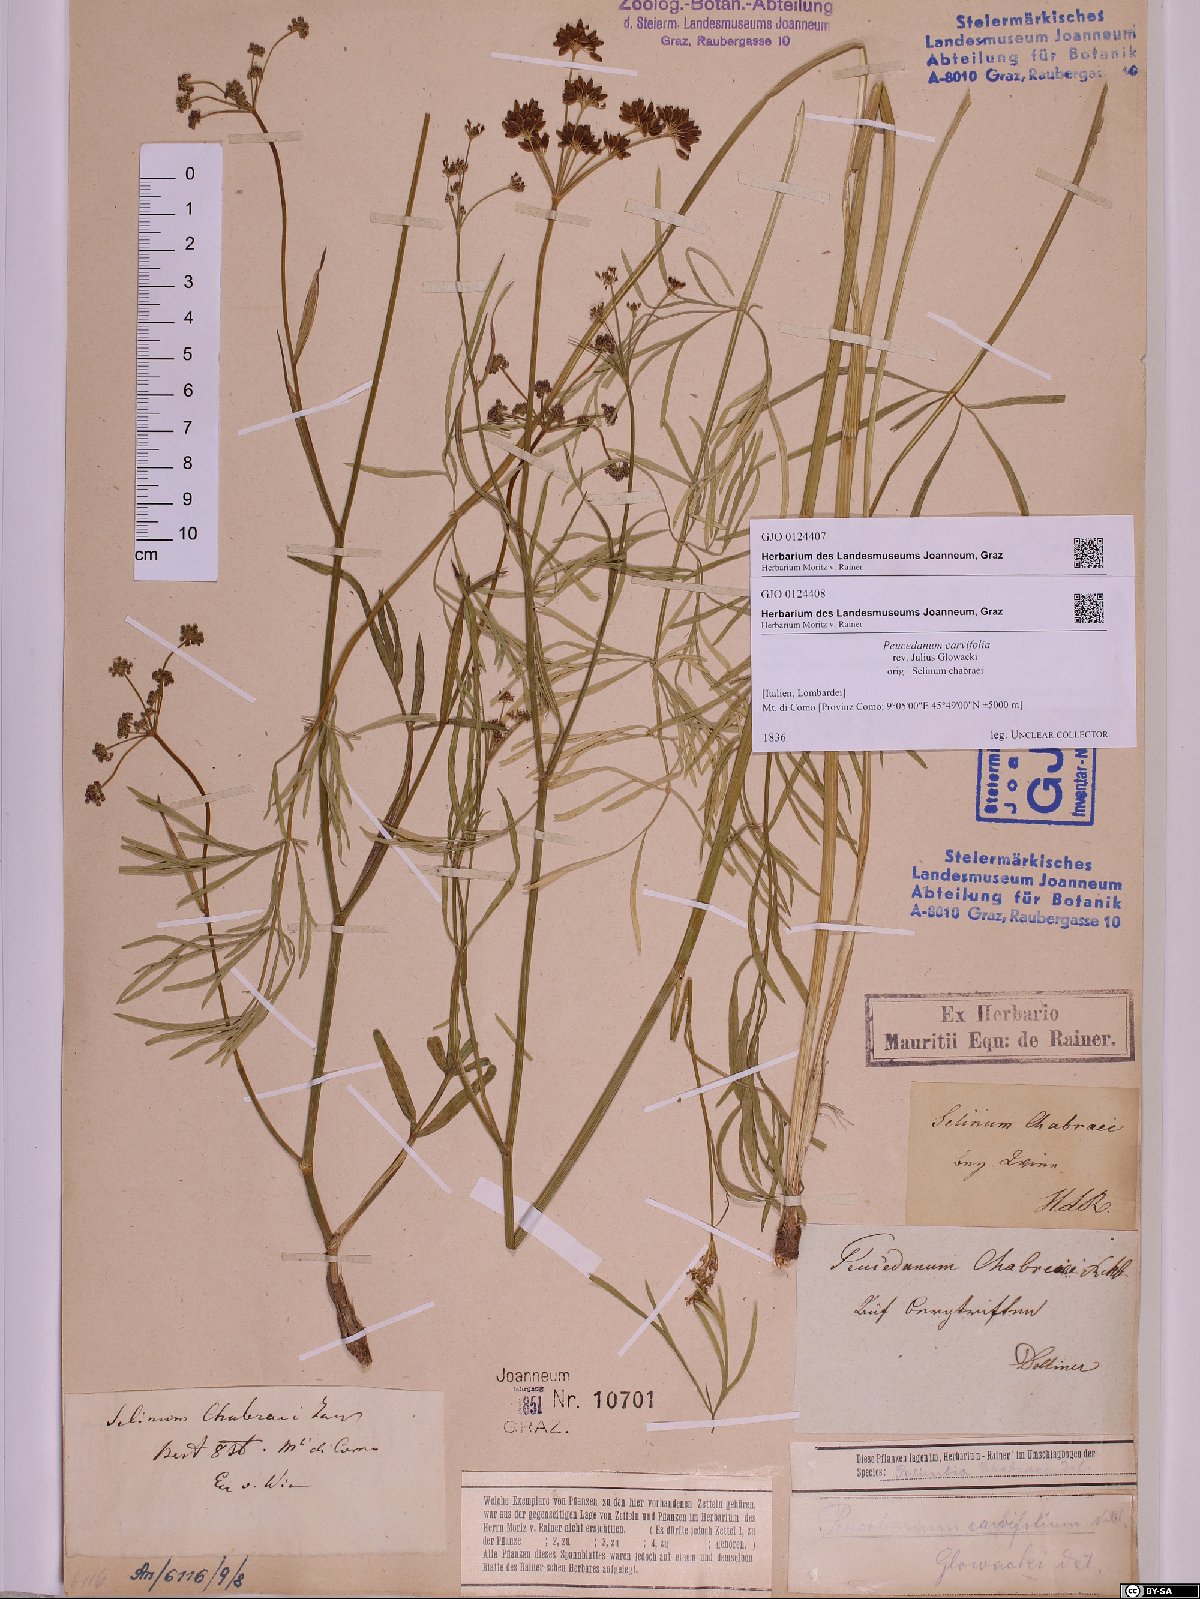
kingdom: Plantae
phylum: Tracheophyta
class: Magnoliopsida
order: Apiales
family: Apiaceae
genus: Dichoropetalum
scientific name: Dichoropetalum carvifolia
